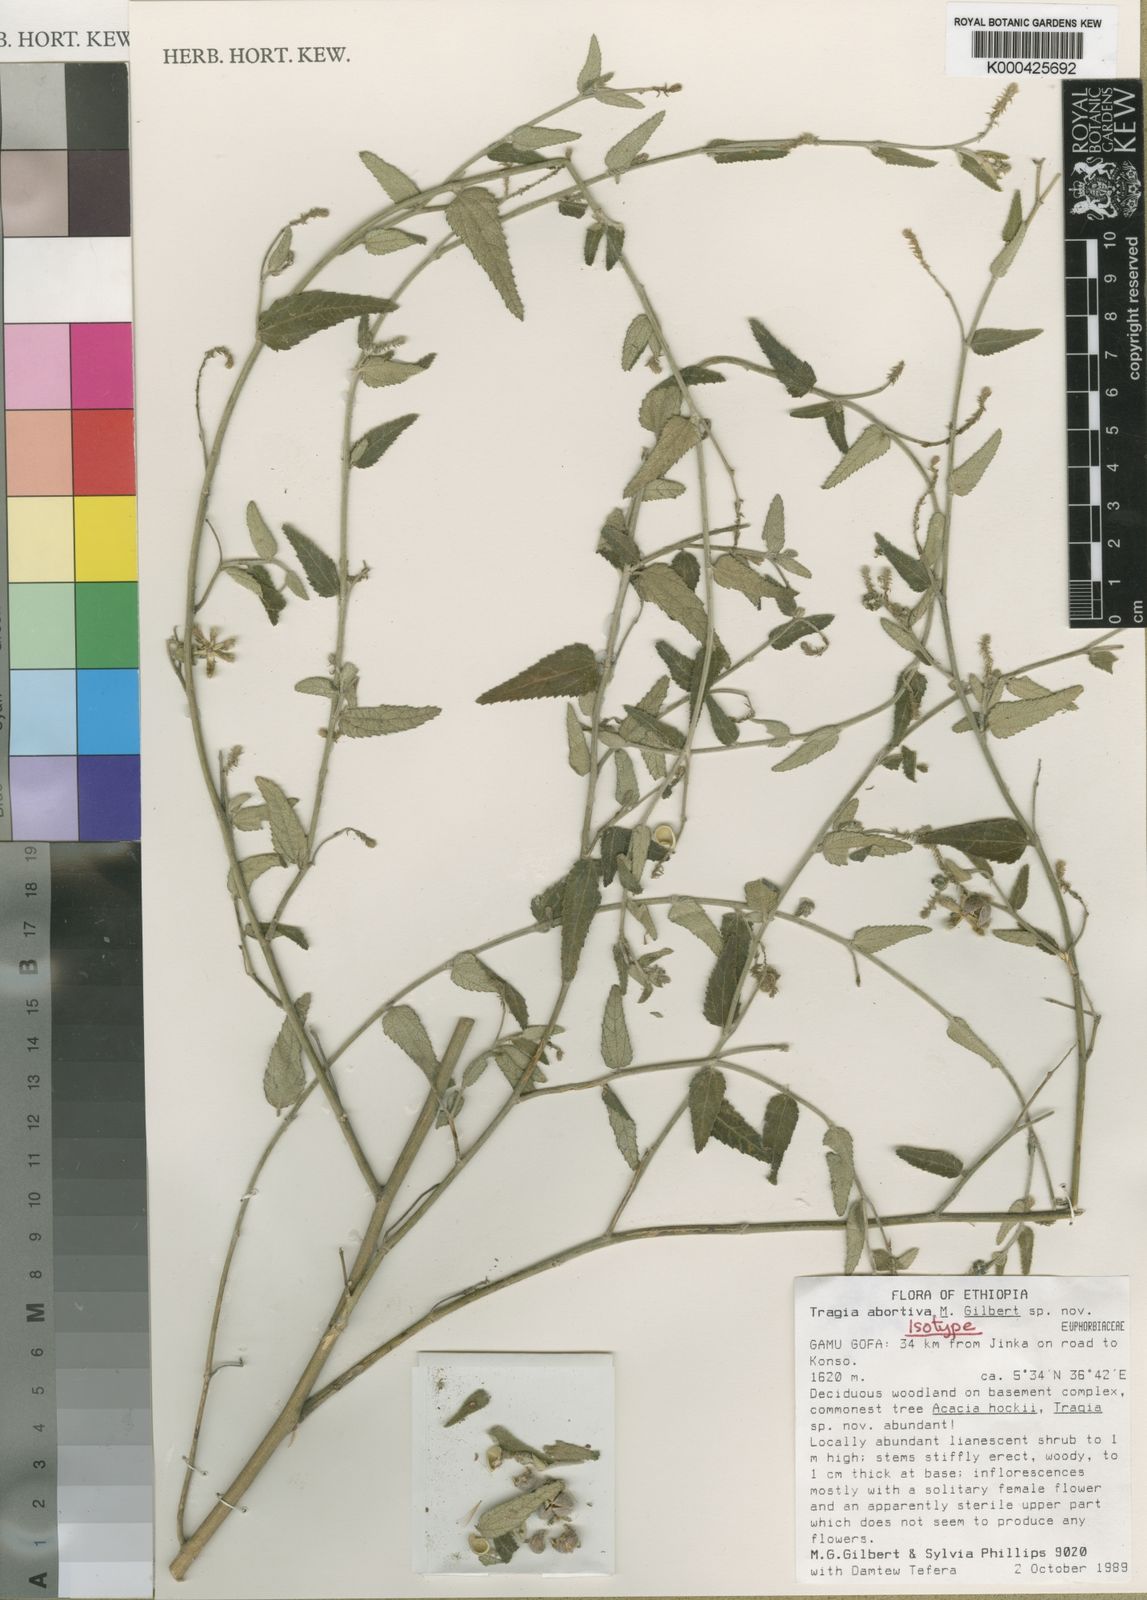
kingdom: Plantae
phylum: Tracheophyta
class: Magnoliopsida
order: Malpighiales
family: Euphorbiaceae
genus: Tragia
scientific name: Tragia abortiva
